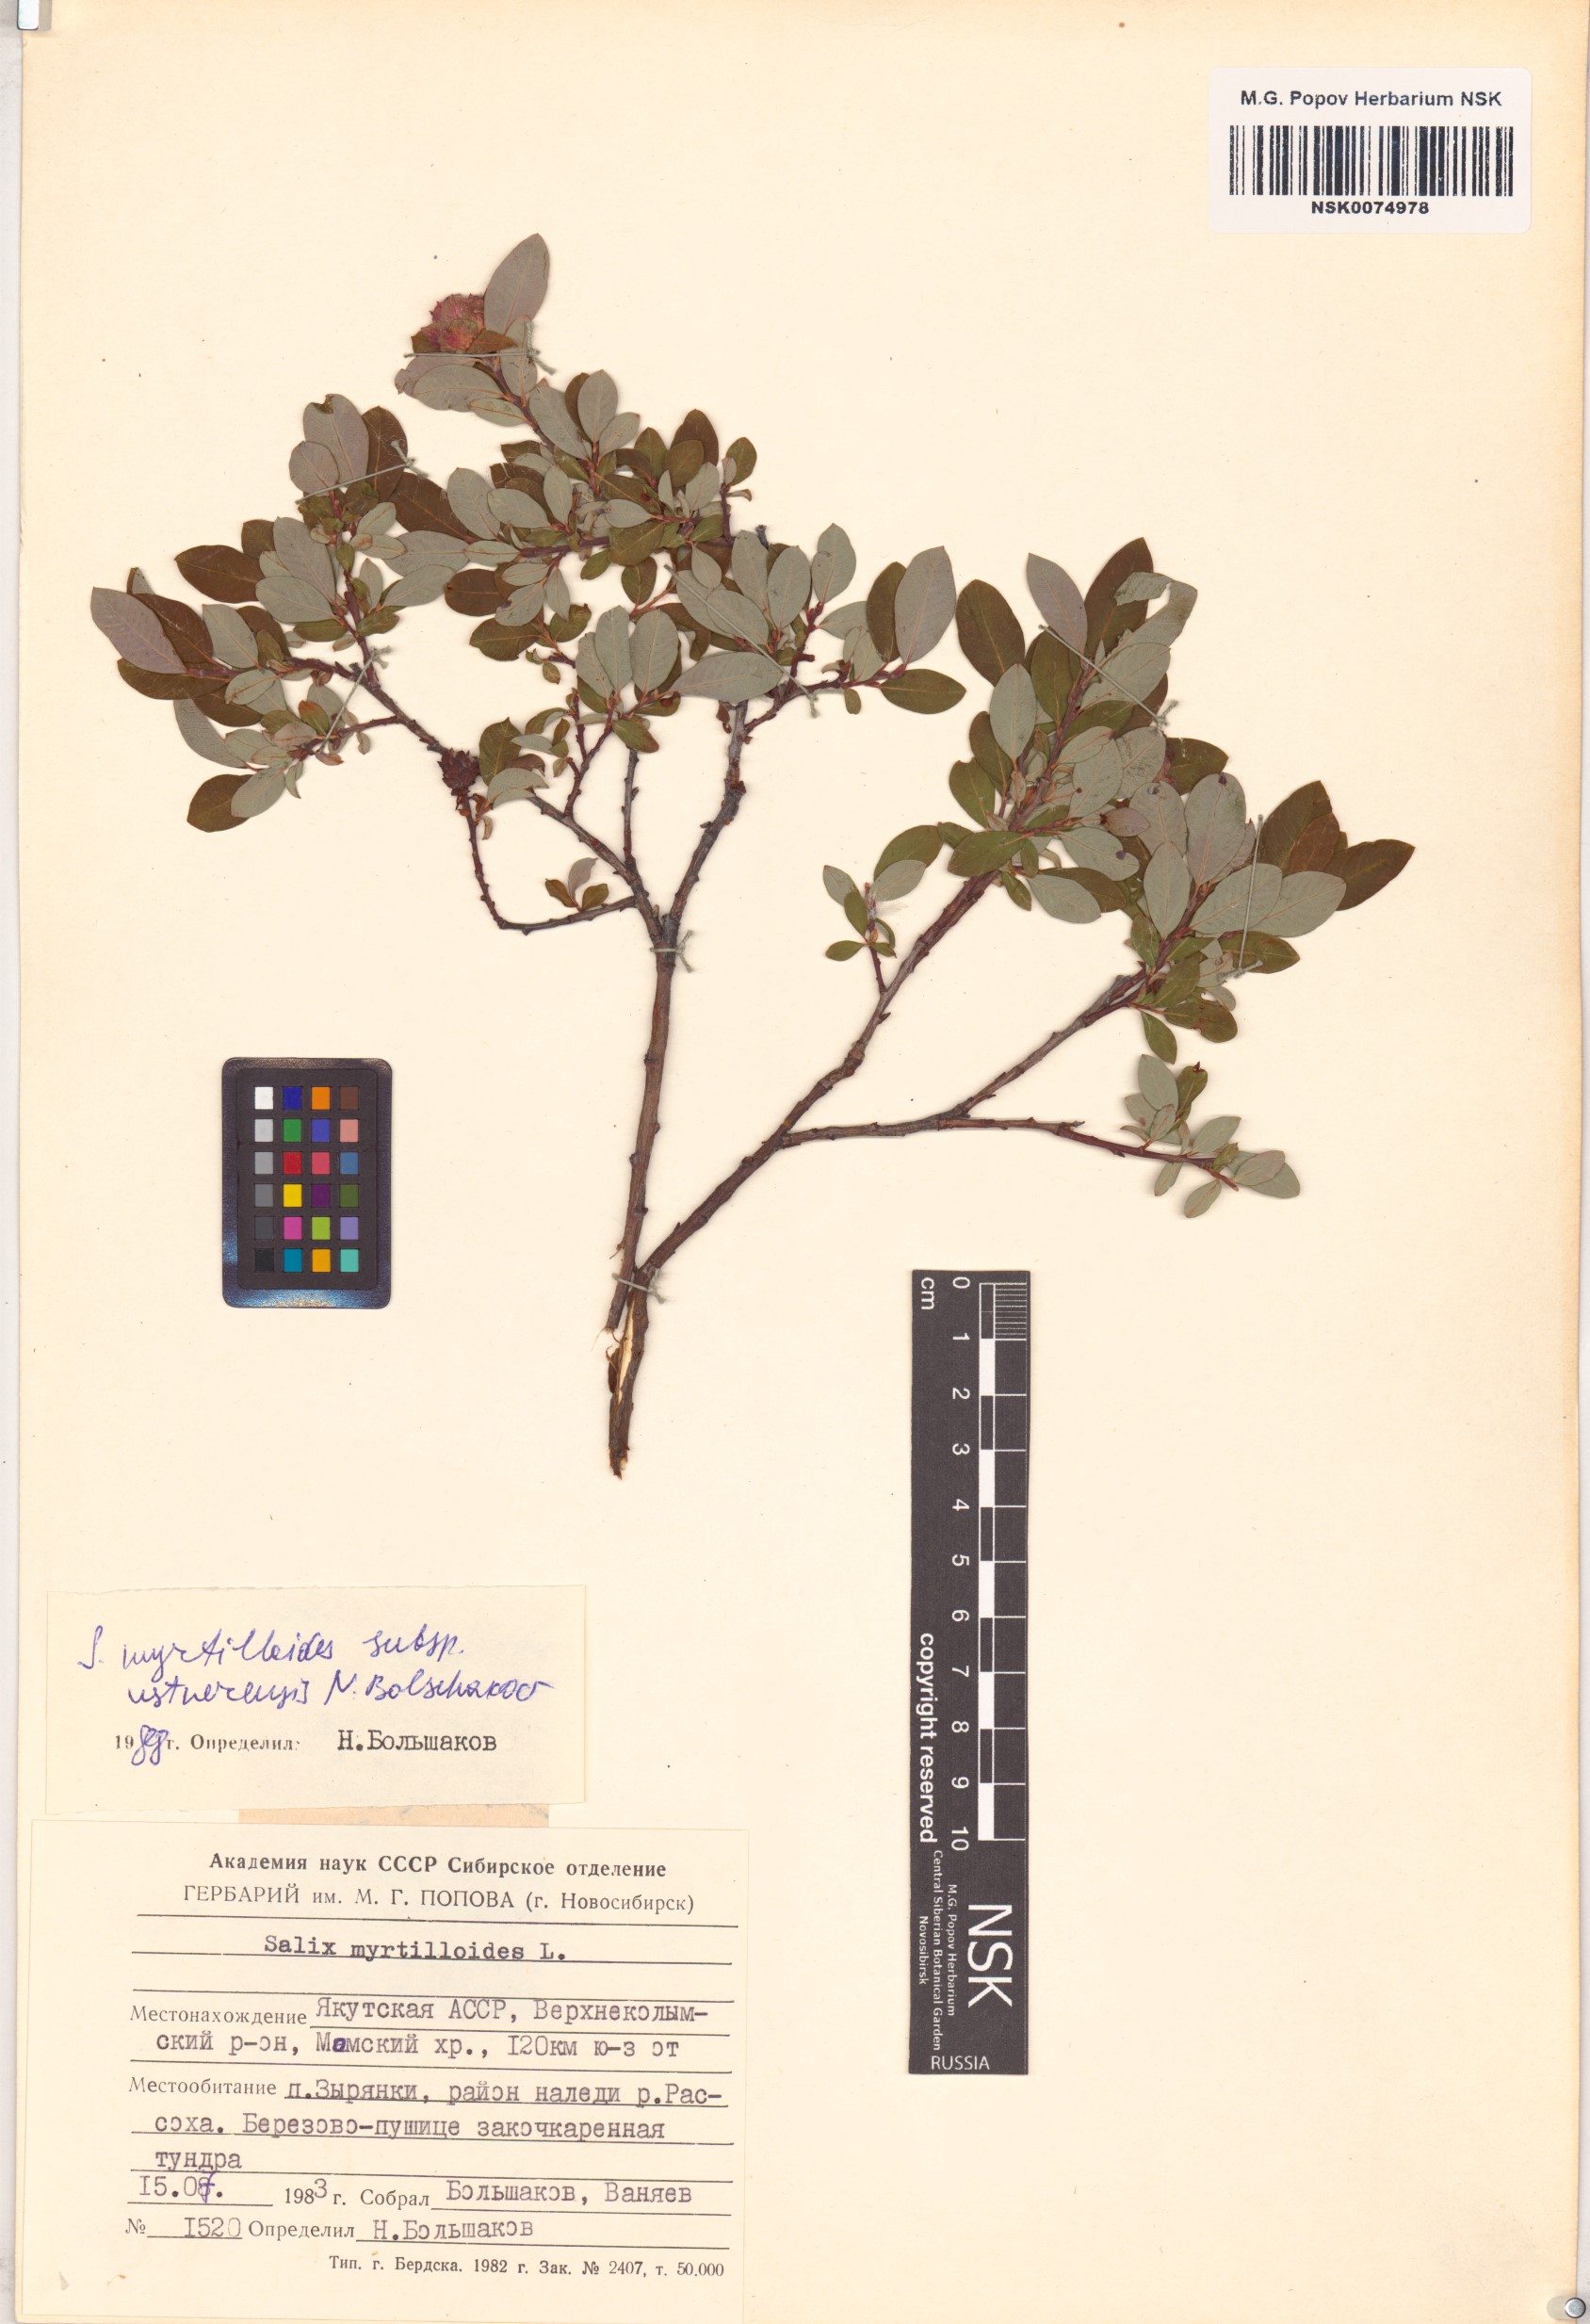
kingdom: Plantae
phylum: Tracheophyta
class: Magnoliopsida
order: Malpighiales
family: Salicaceae
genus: Salix
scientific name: Salix ustnerensis
